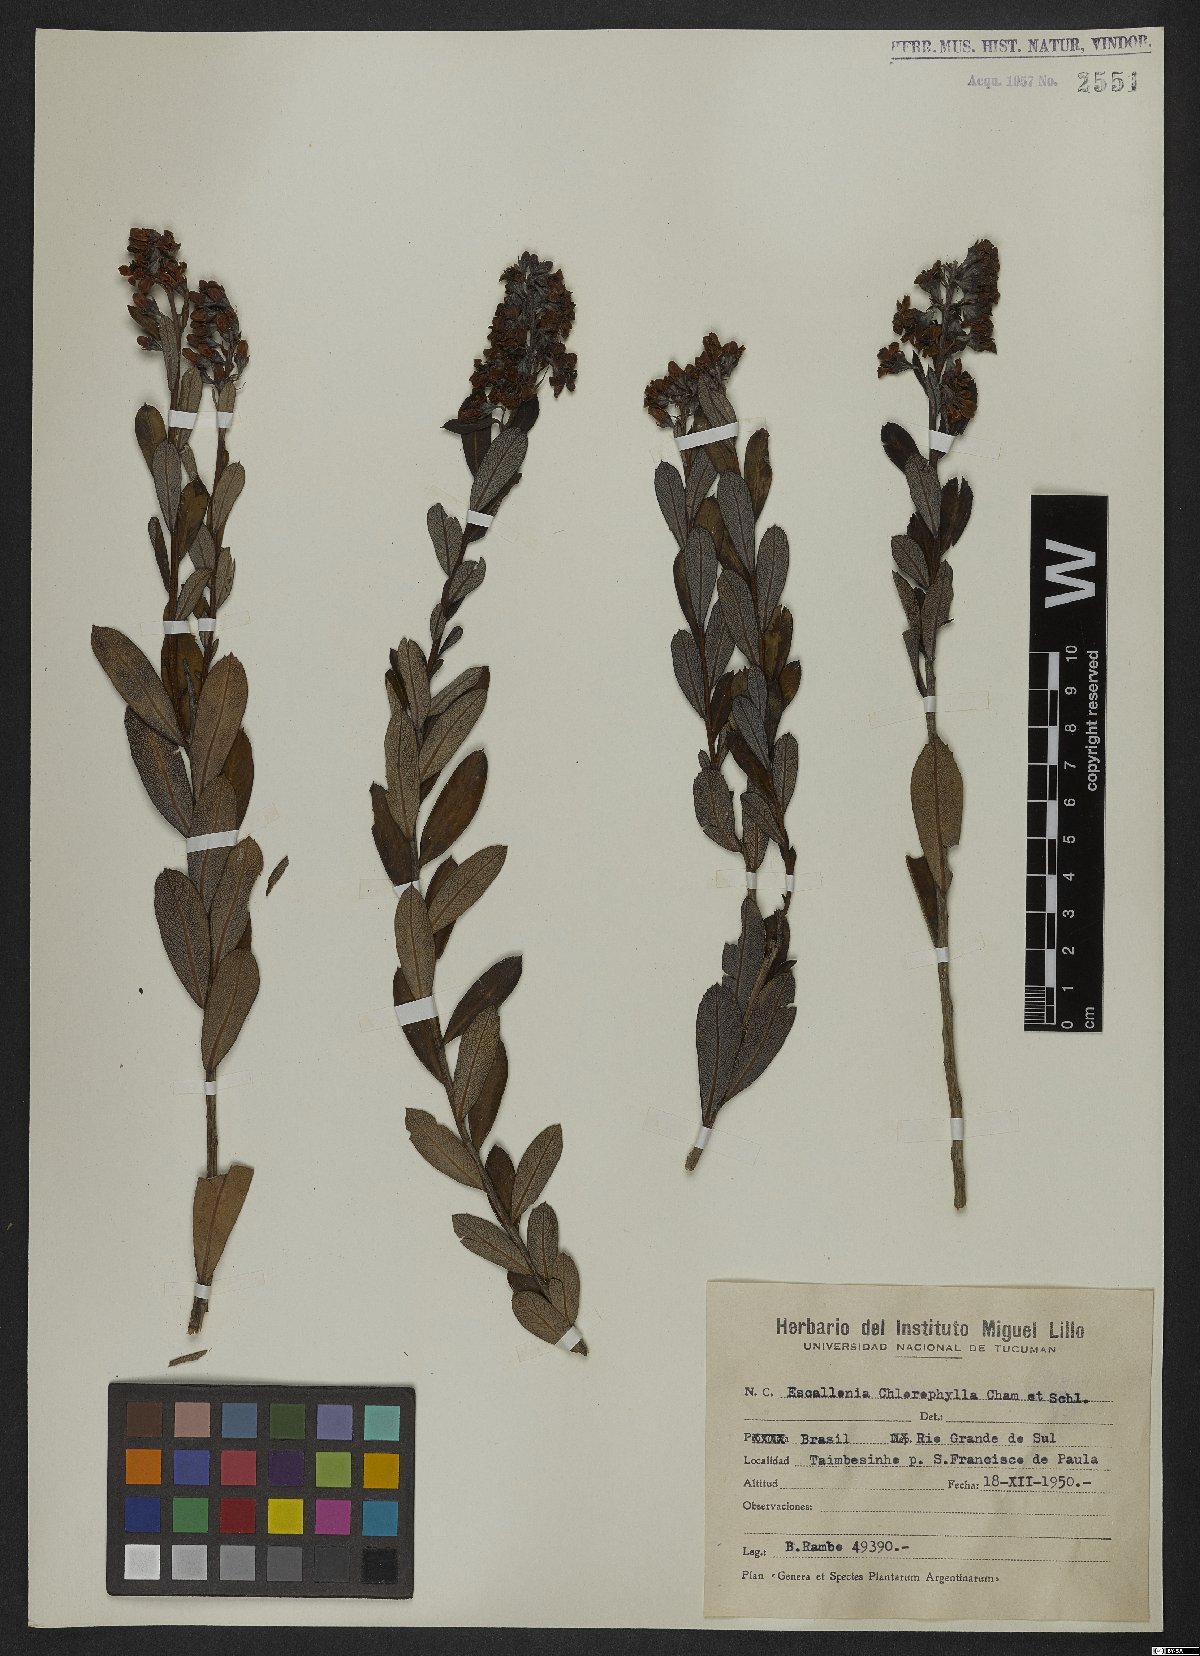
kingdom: Plantae
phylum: Tracheophyta
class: Magnoliopsida
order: Escalloniales
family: Escalloniaceae
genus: Escallonia
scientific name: Escallonia chlorophylla
